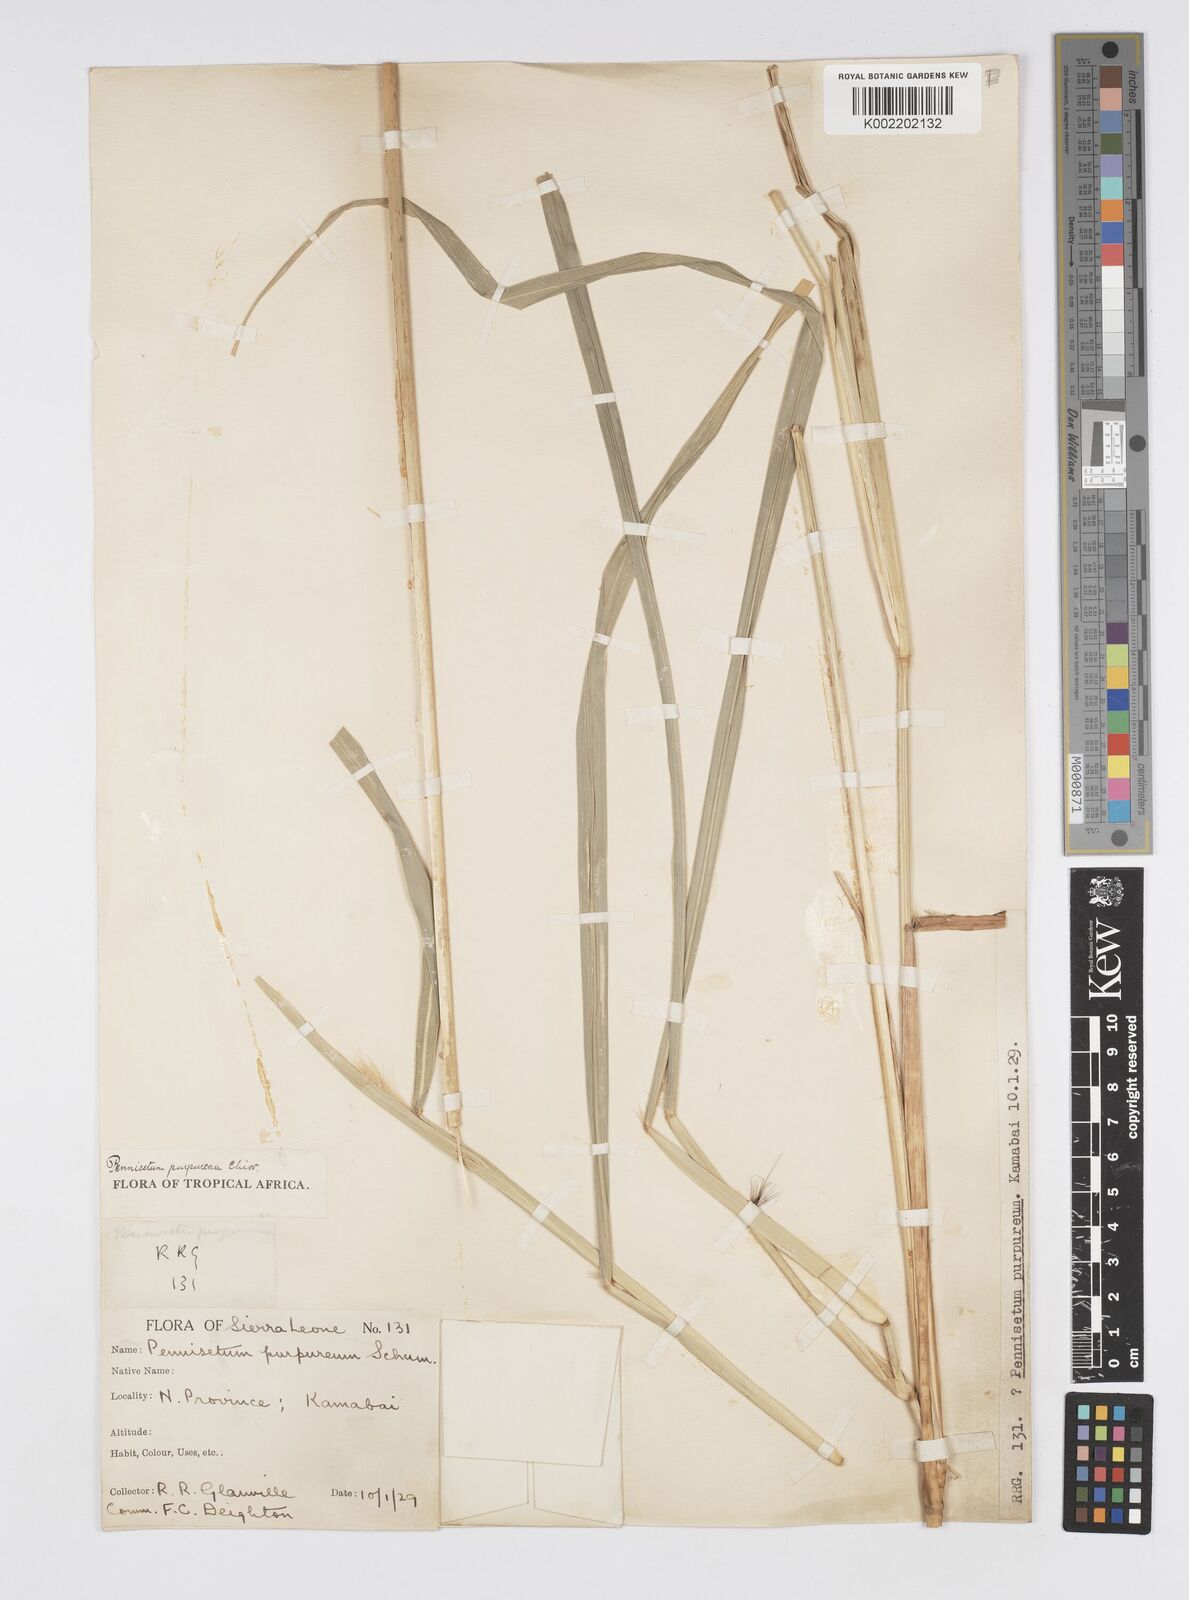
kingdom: Plantae
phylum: Tracheophyta
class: Liliopsida
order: Poales
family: Poaceae
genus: Cenchrus
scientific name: Cenchrus purpureus
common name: Elephant grass
